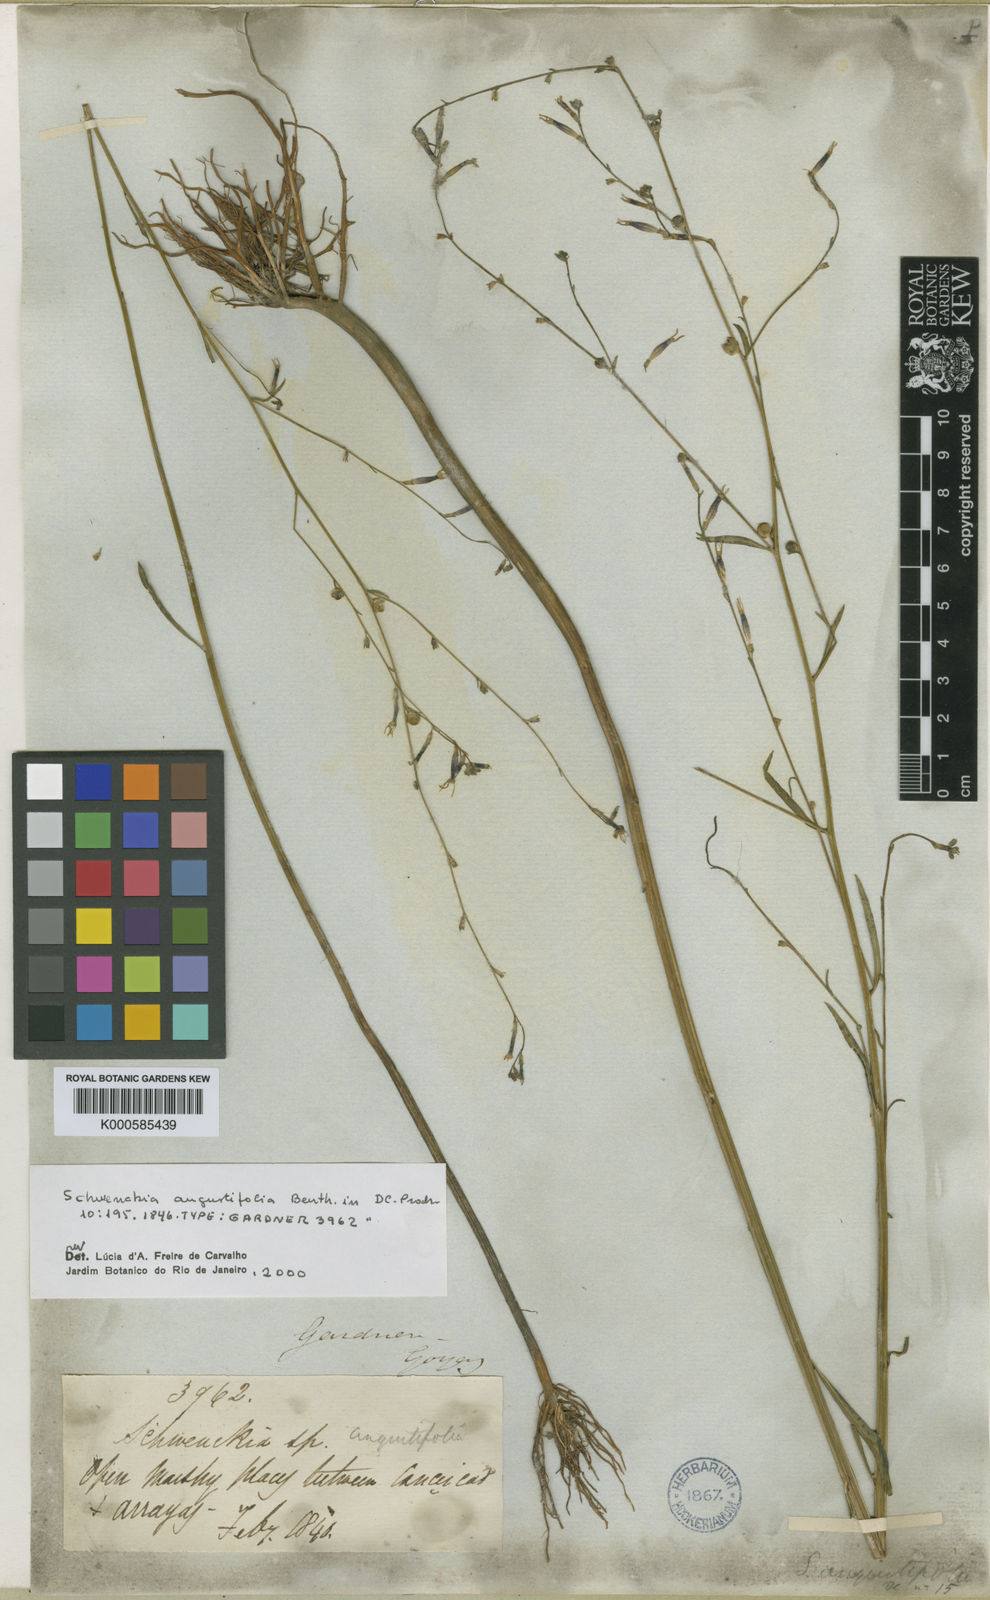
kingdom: Plantae
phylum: Tracheophyta
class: Magnoliopsida
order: Solanales
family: Solanaceae
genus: Schwenckia
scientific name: Schwenckia americana
